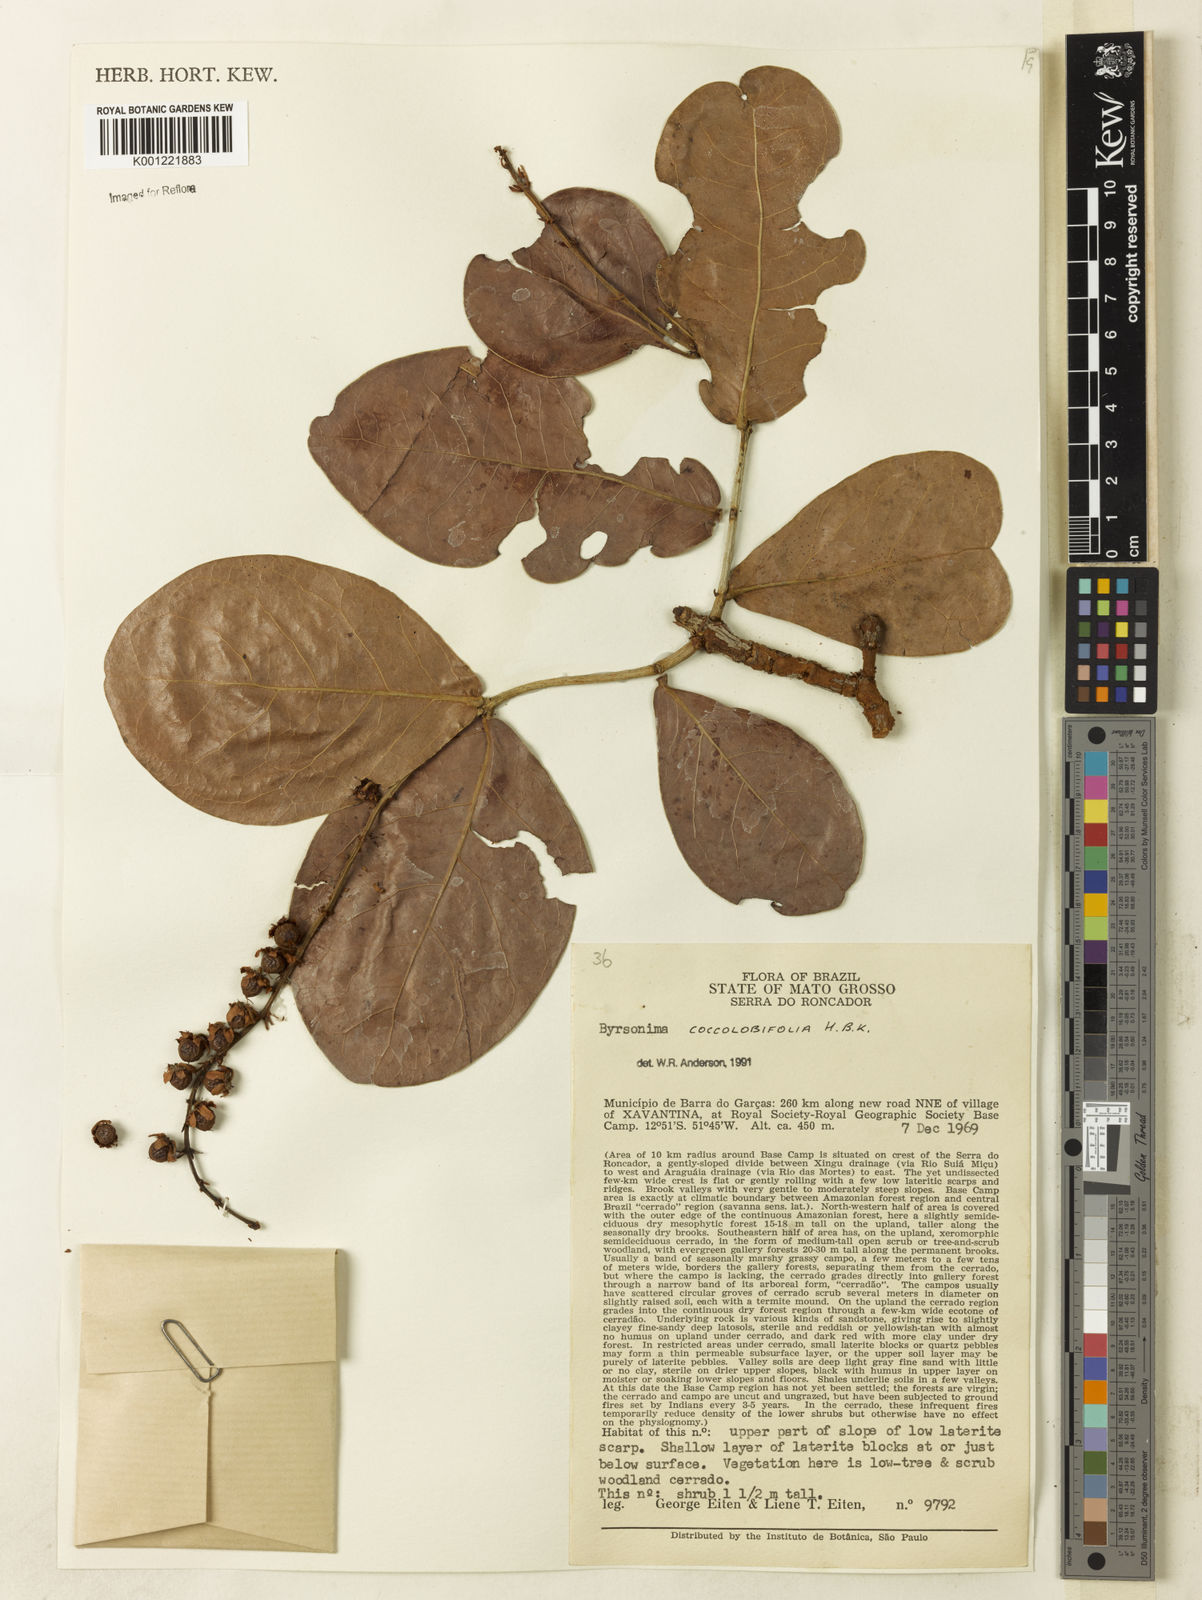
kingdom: Plantae
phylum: Tracheophyta
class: Magnoliopsida
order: Malpighiales
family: Malpighiaceae
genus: Byrsonima
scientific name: Byrsonima coccolobifolia
